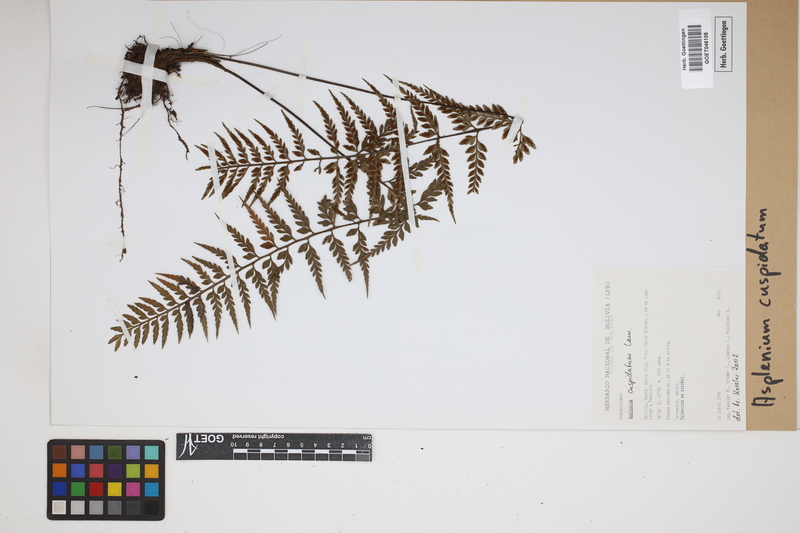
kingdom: Plantae
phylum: Tracheophyta
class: Polypodiopsida
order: Polypodiales
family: Aspleniaceae
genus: Asplenium
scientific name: Asplenium cuspidatum
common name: Eared spleenwort
